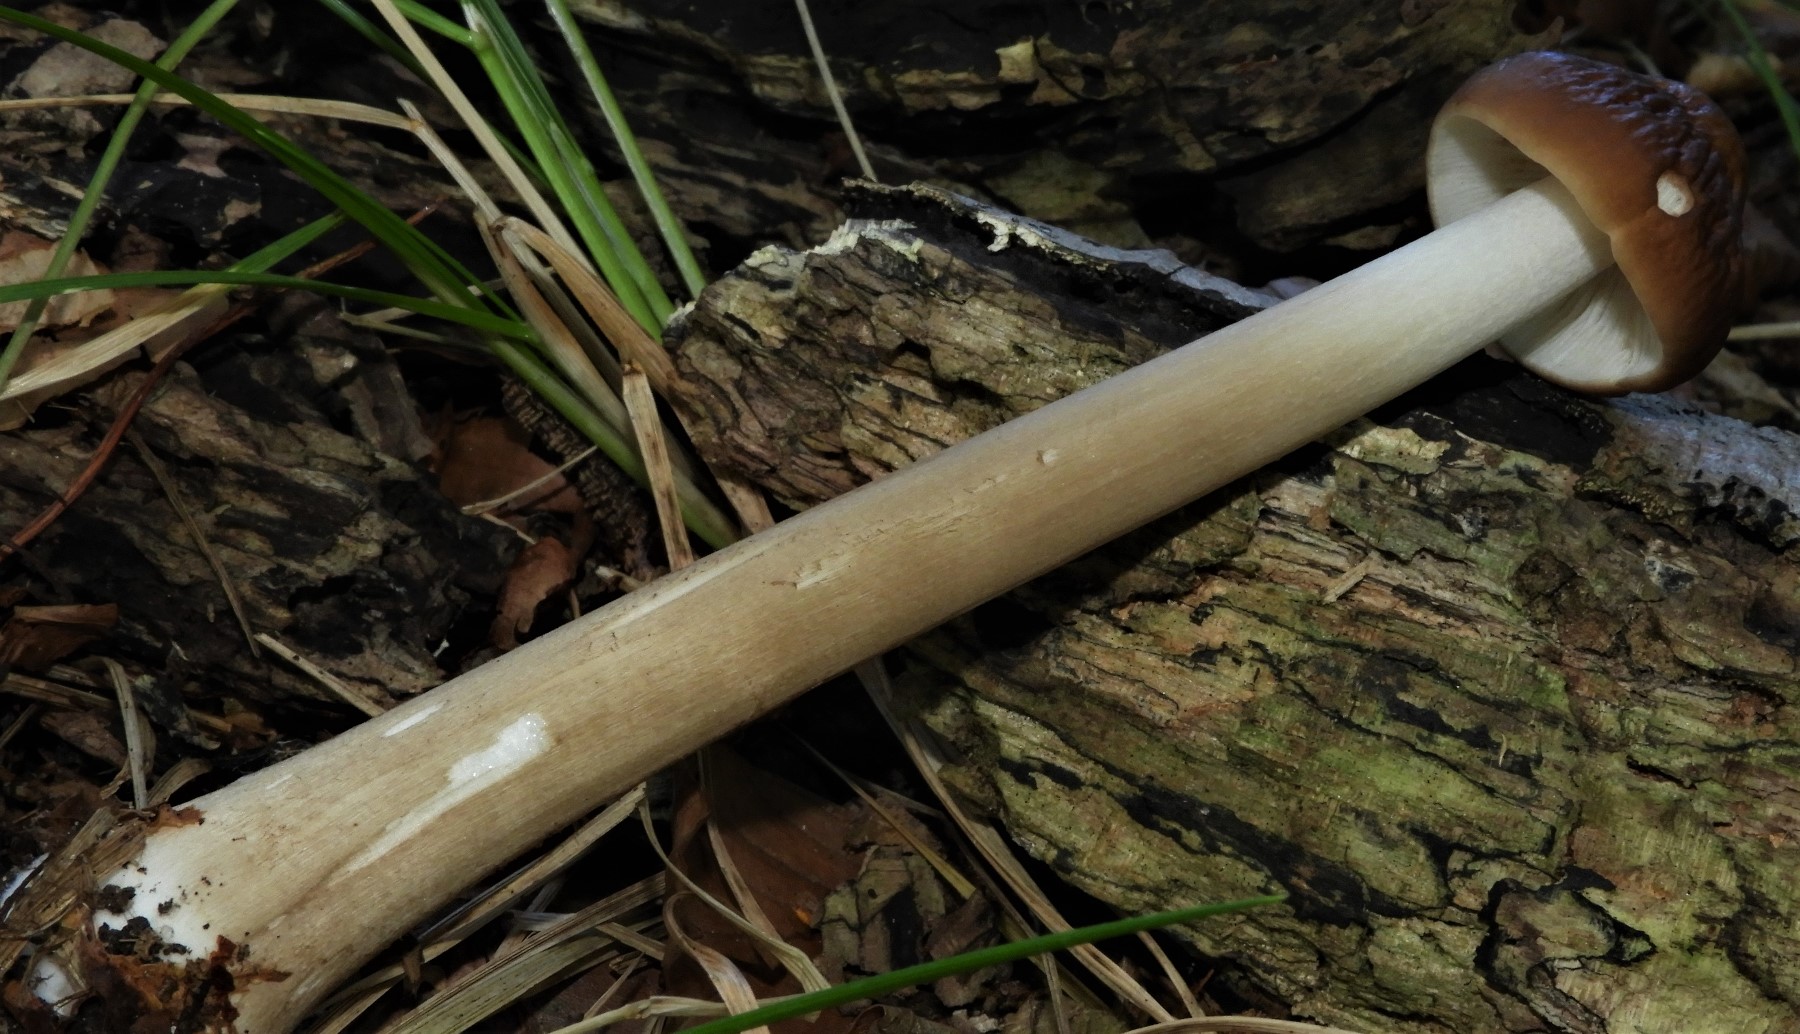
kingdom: Fungi
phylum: Basidiomycota
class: Agaricomycetes
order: Agaricales
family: Physalacriaceae
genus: Hymenopellis
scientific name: Hymenopellis radicata
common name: almindelig pælerodshat
